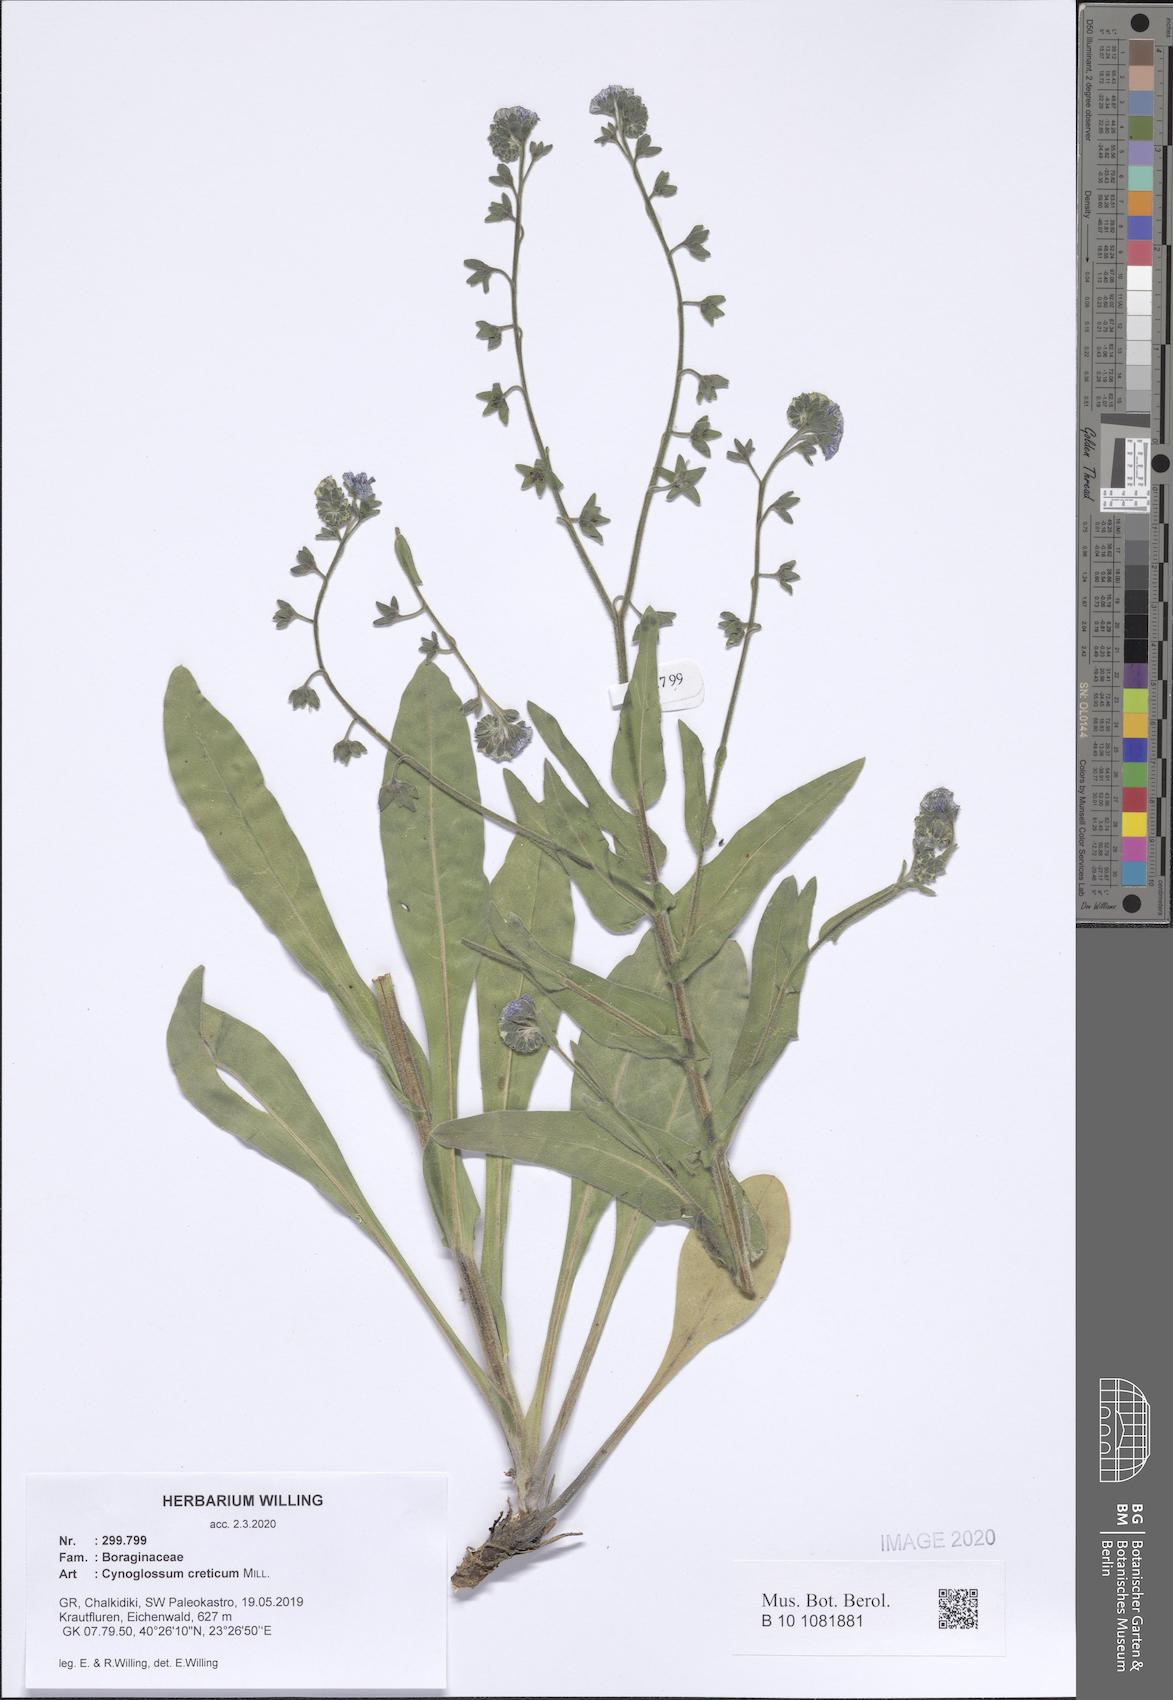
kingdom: Plantae
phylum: Tracheophyta
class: Magnoliopsida
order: Boraginales
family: Boraginaceae
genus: Cynoglossum
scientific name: Cynoglossum creticum
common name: Blue hound's tongue
